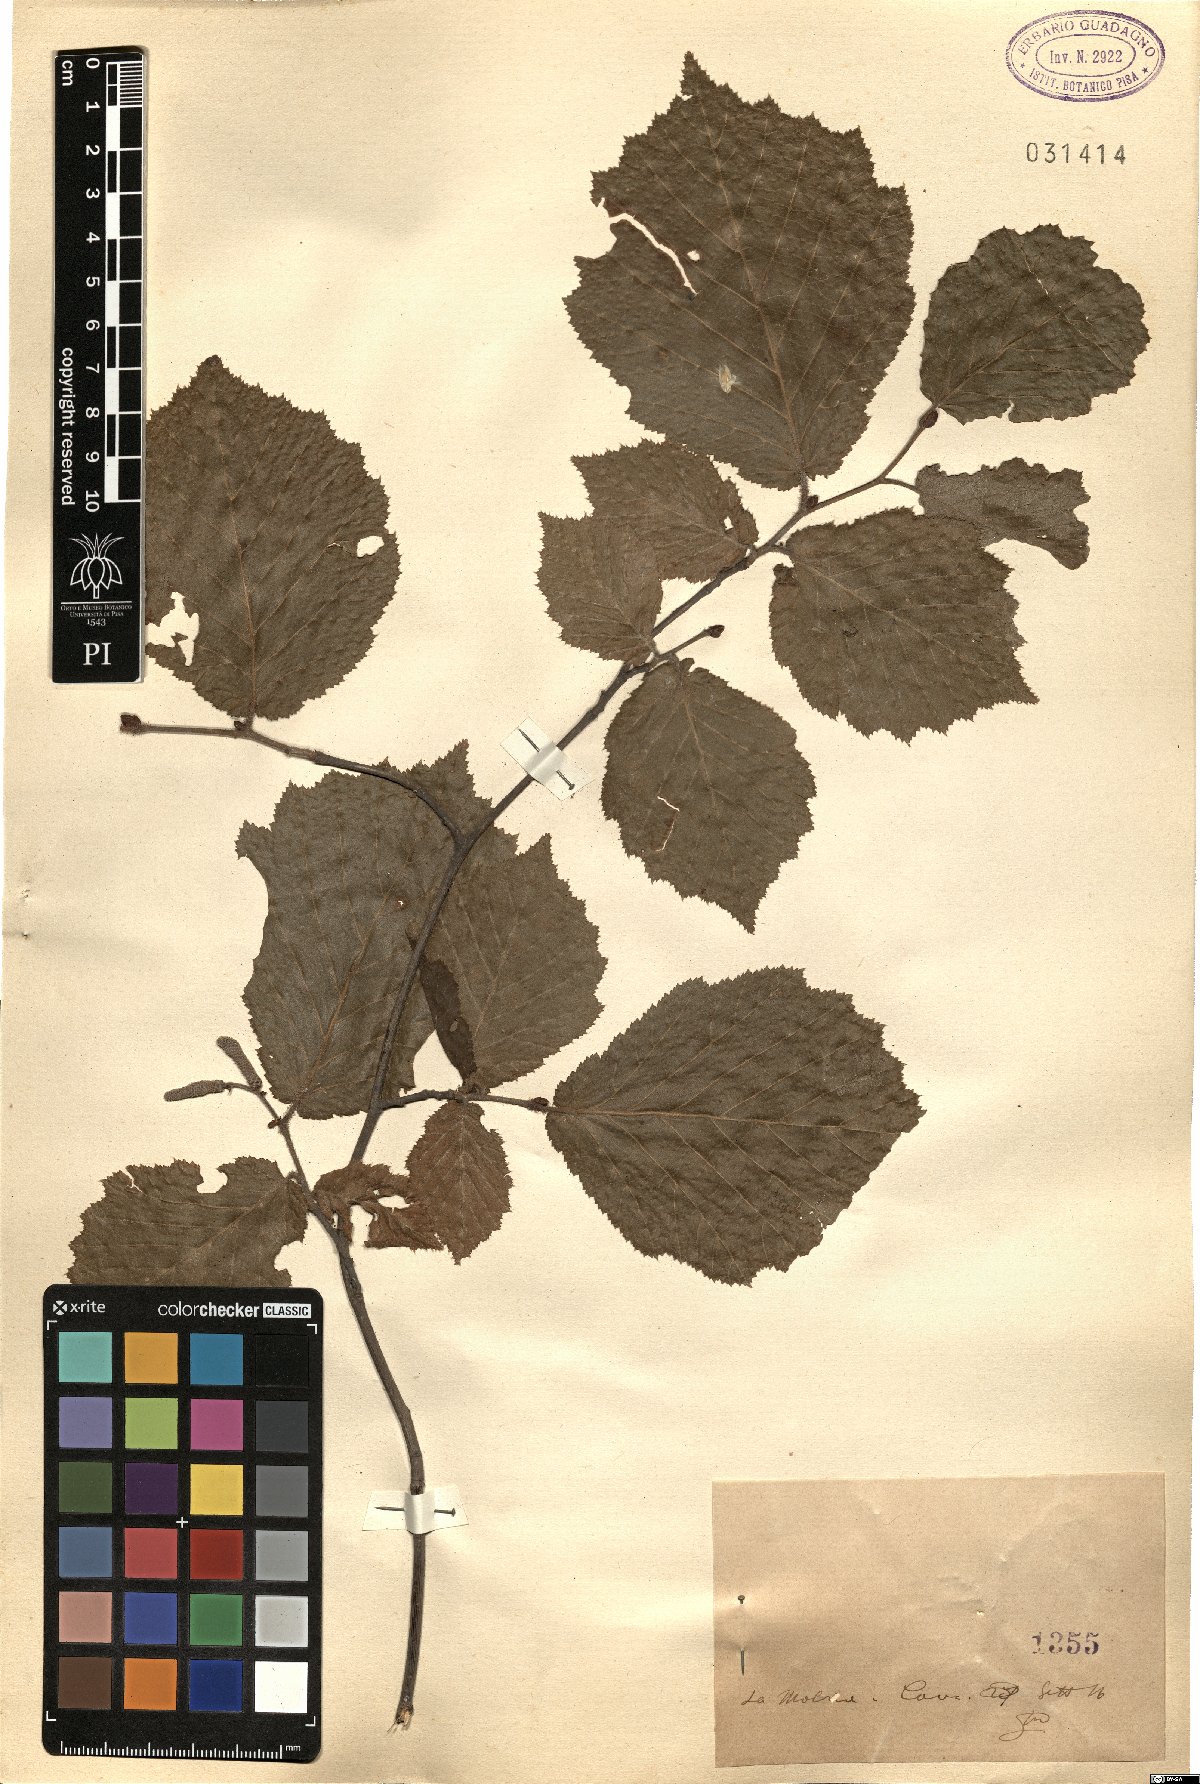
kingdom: Plantae
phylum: Tracheophyta
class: Magnoliopsida
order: Fagales
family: Betulaceae
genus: Corylus
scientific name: Corylus
